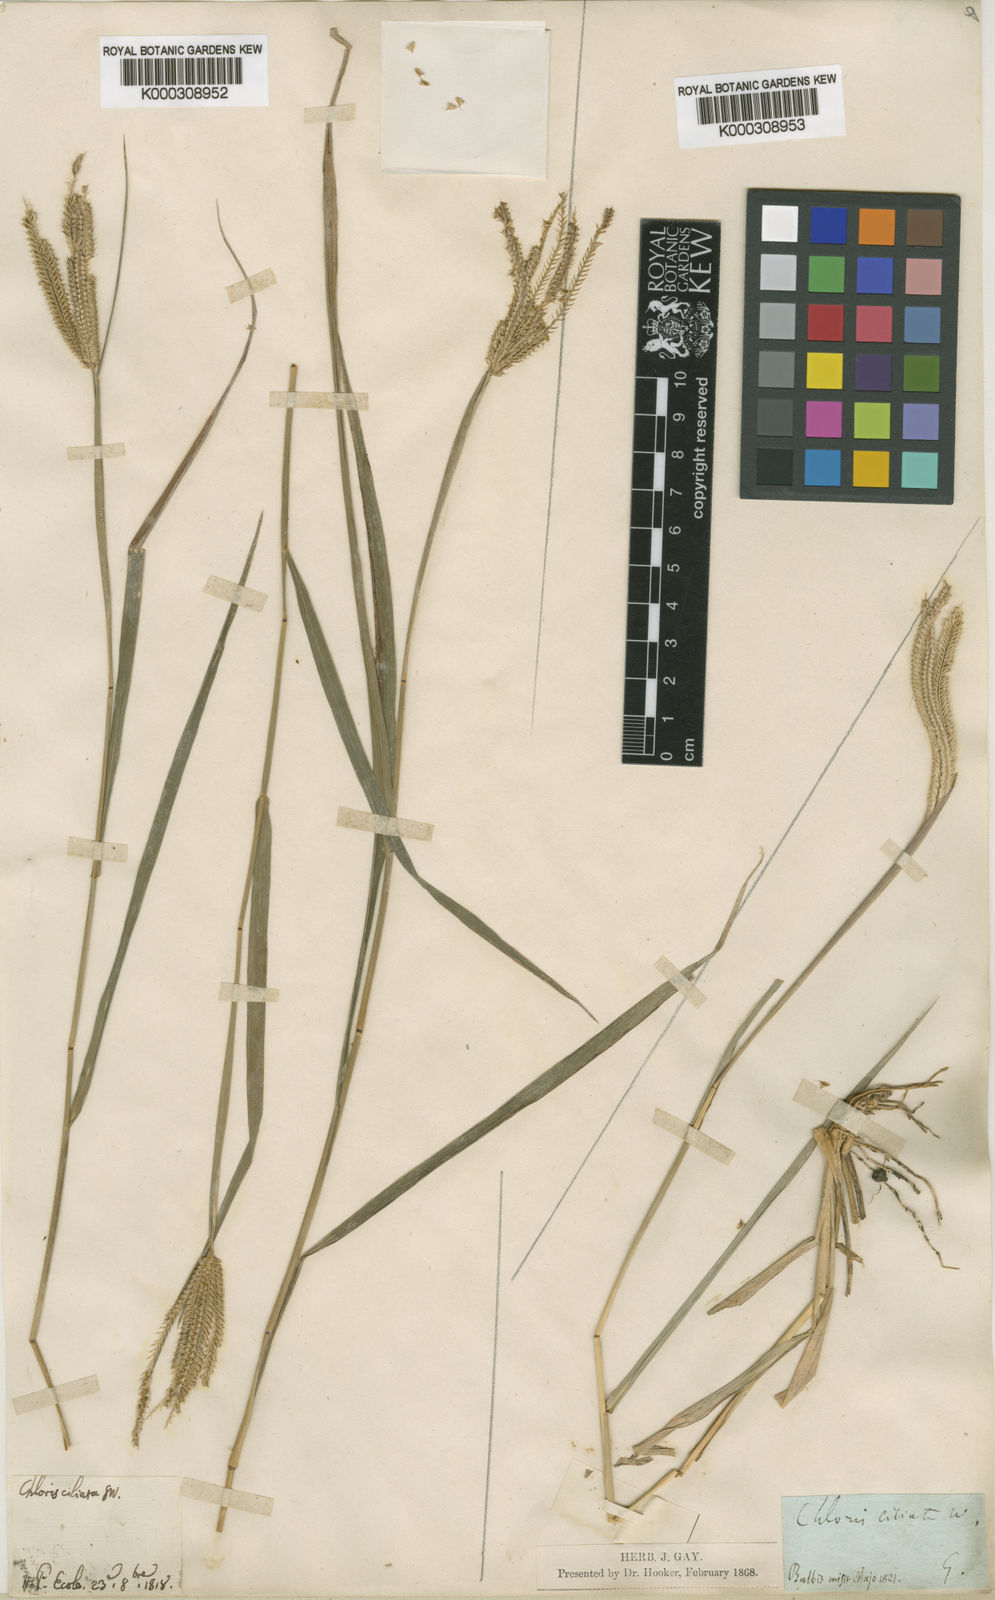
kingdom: Plantae
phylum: Tracheophyta
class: Liliopsida
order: Poales
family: Poaceae
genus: Chloris
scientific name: Chloris
